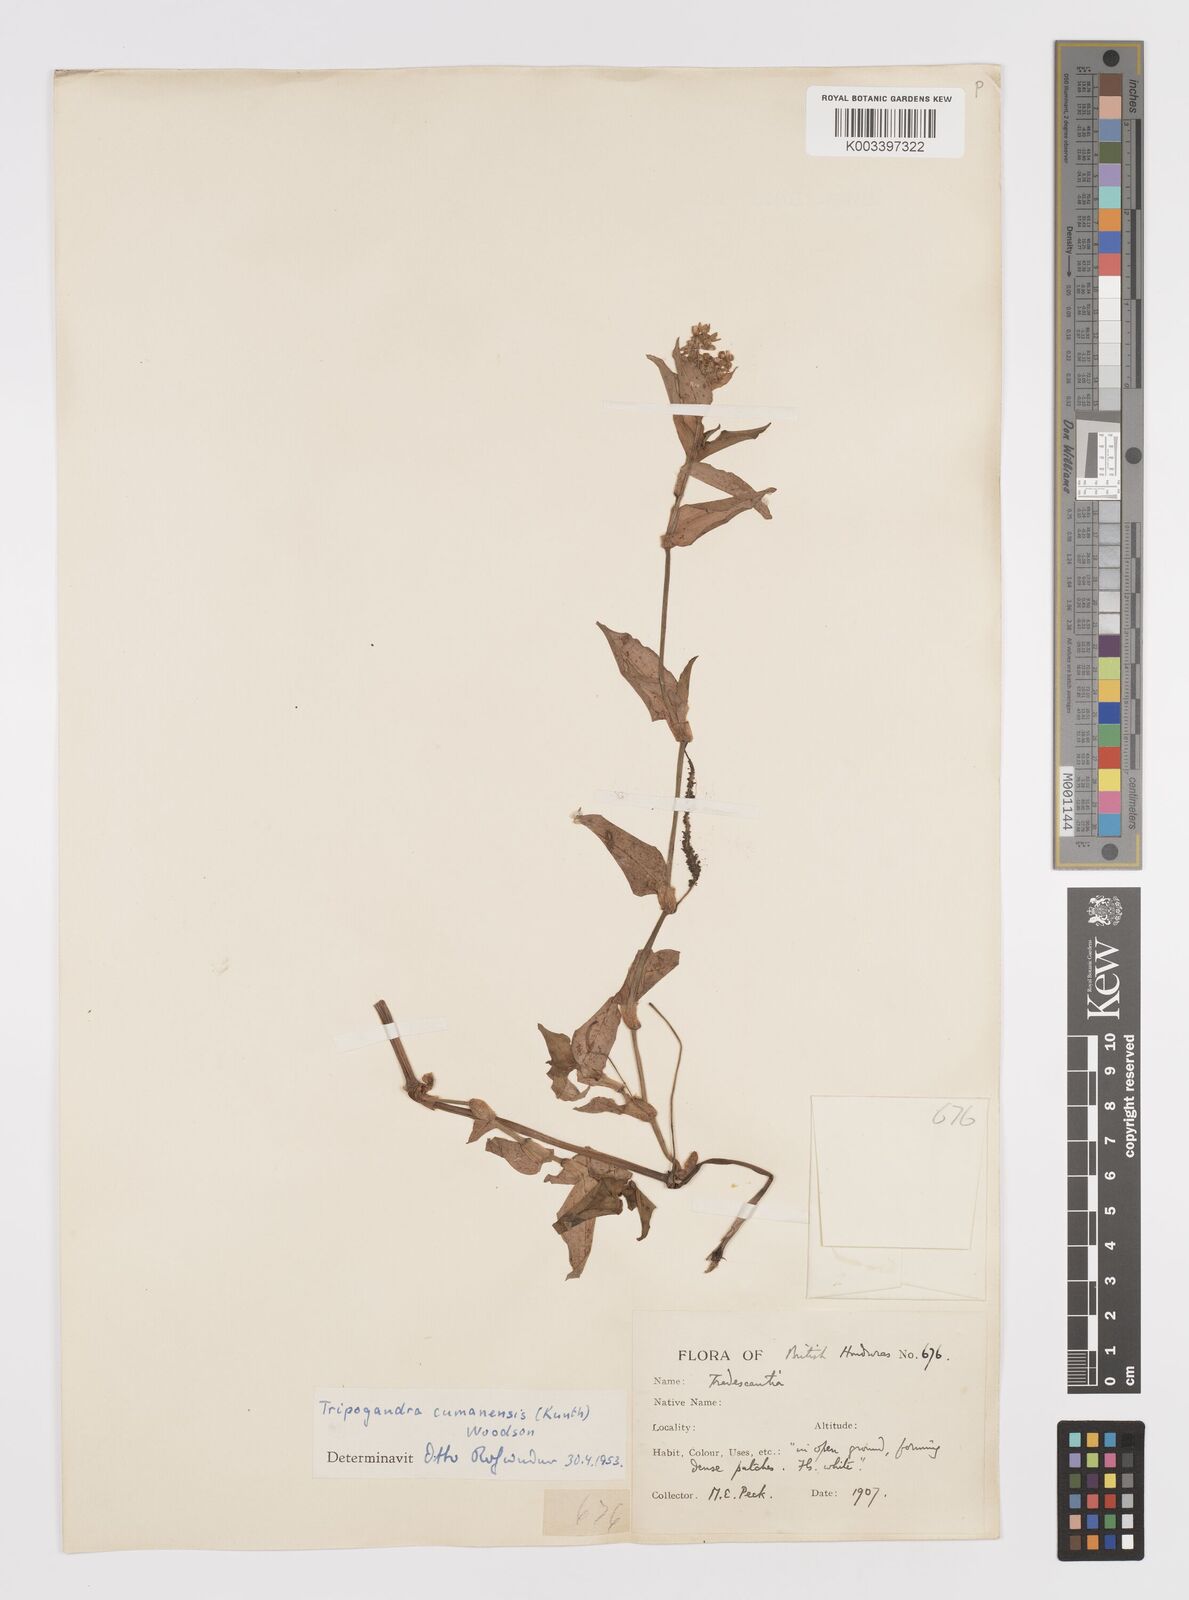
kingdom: Plantae
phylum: Tracheophyta
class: Liliopsida
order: Commelinales
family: Commelinaceae
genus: Callisia
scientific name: Callisia serrulata
